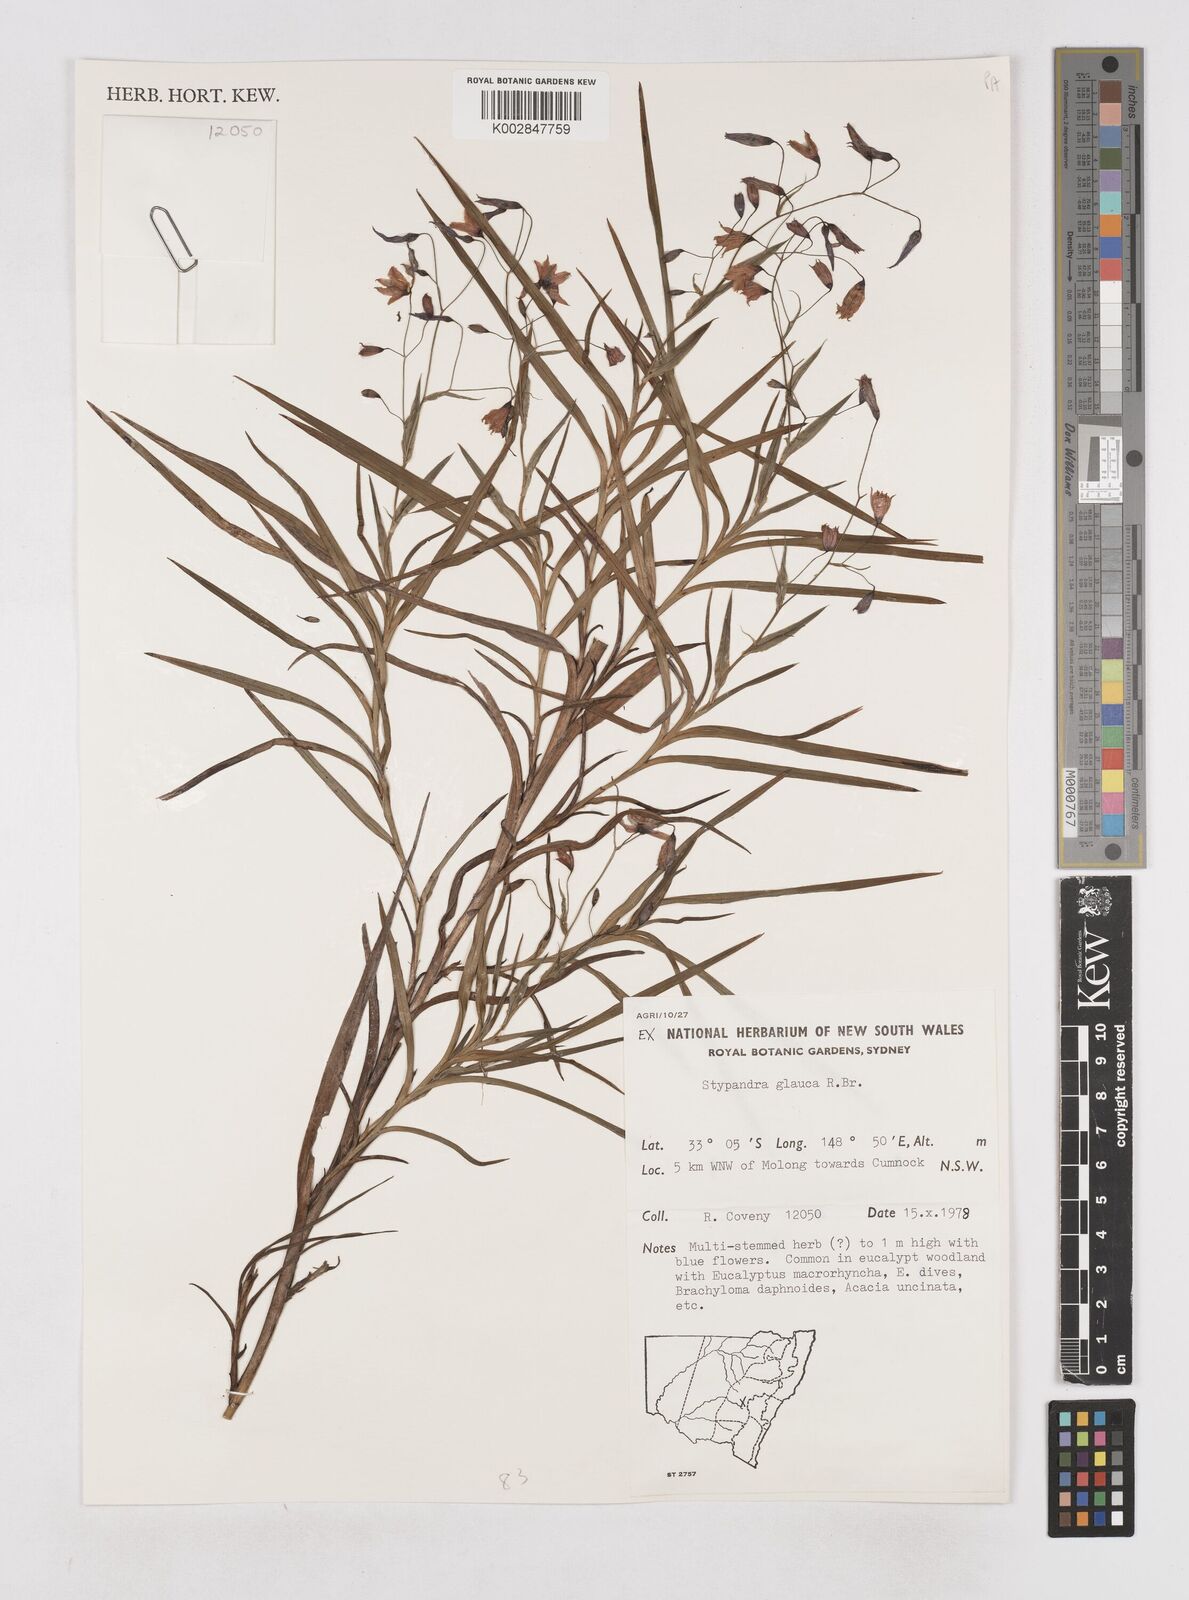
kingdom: Plantae
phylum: Tracheophyta
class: Liliopsida
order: Asparagales
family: Asphodelaceae
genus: Stypandra
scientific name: Stypandra glauca
